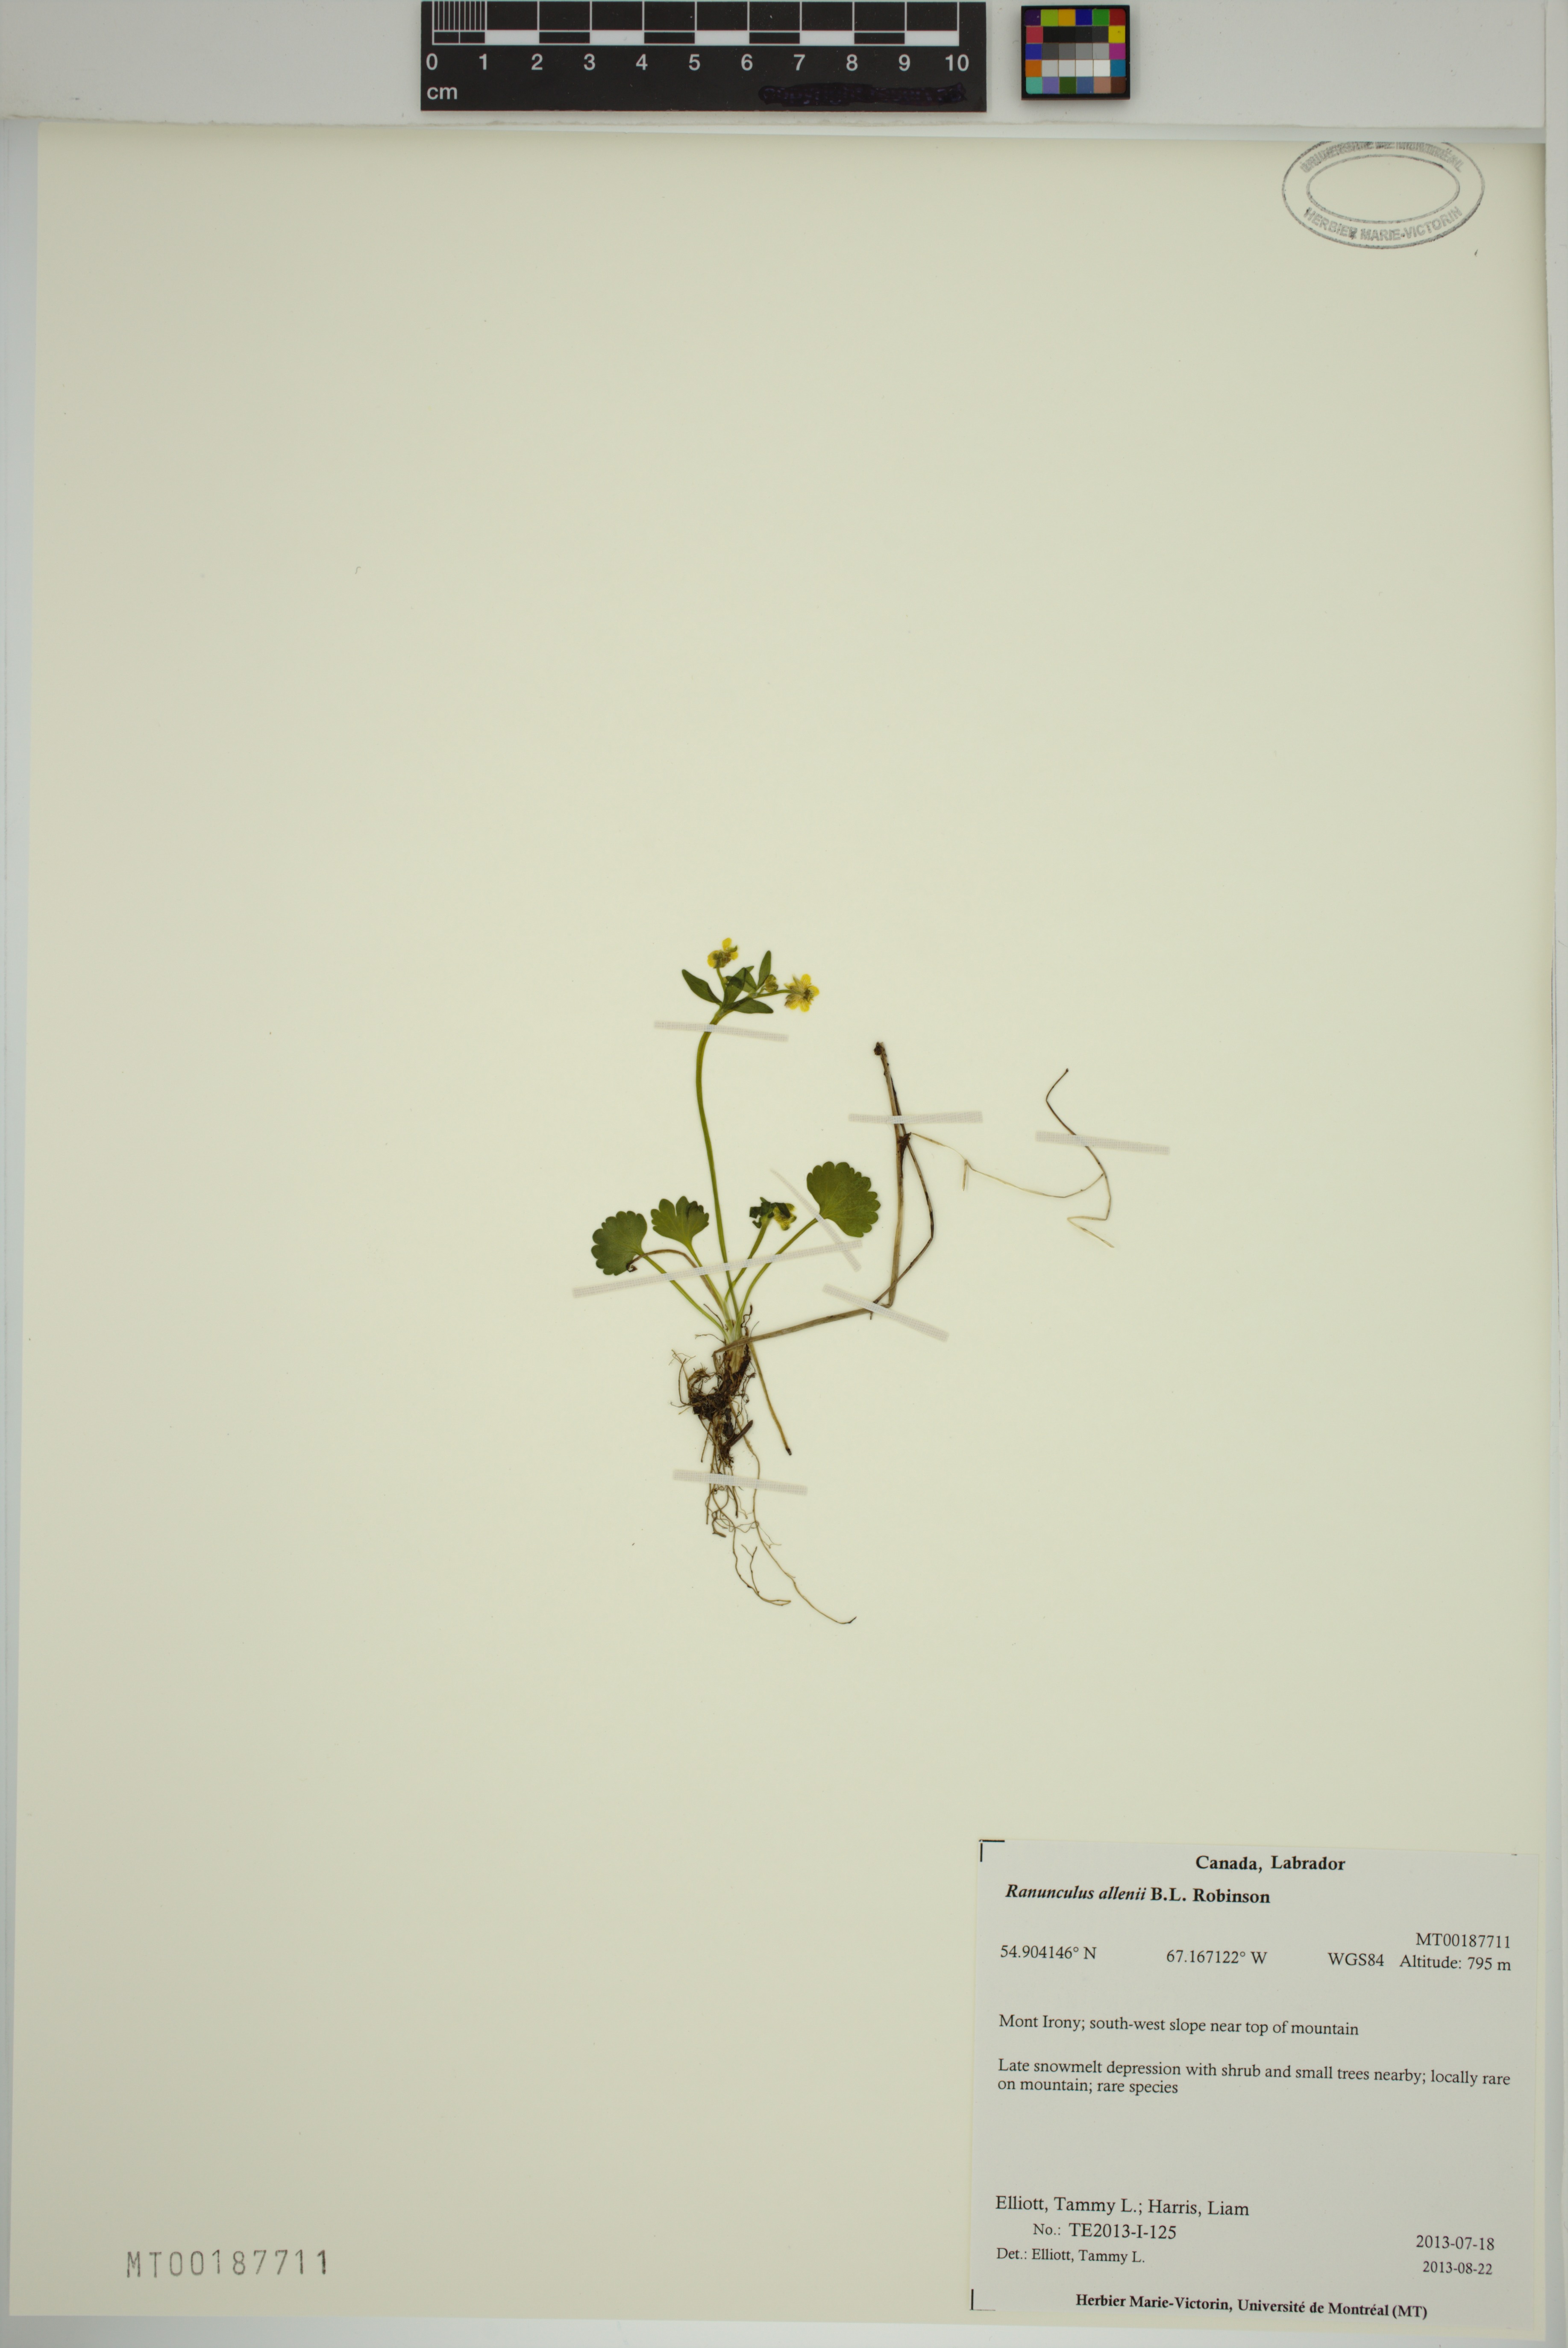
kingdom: Plantae
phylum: Tracheophyta
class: Magnoliopsida
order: Ranunculales
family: Ranunculaceae
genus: Ranunculus
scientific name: Ranunculus allenii
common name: Allen's buttercup
